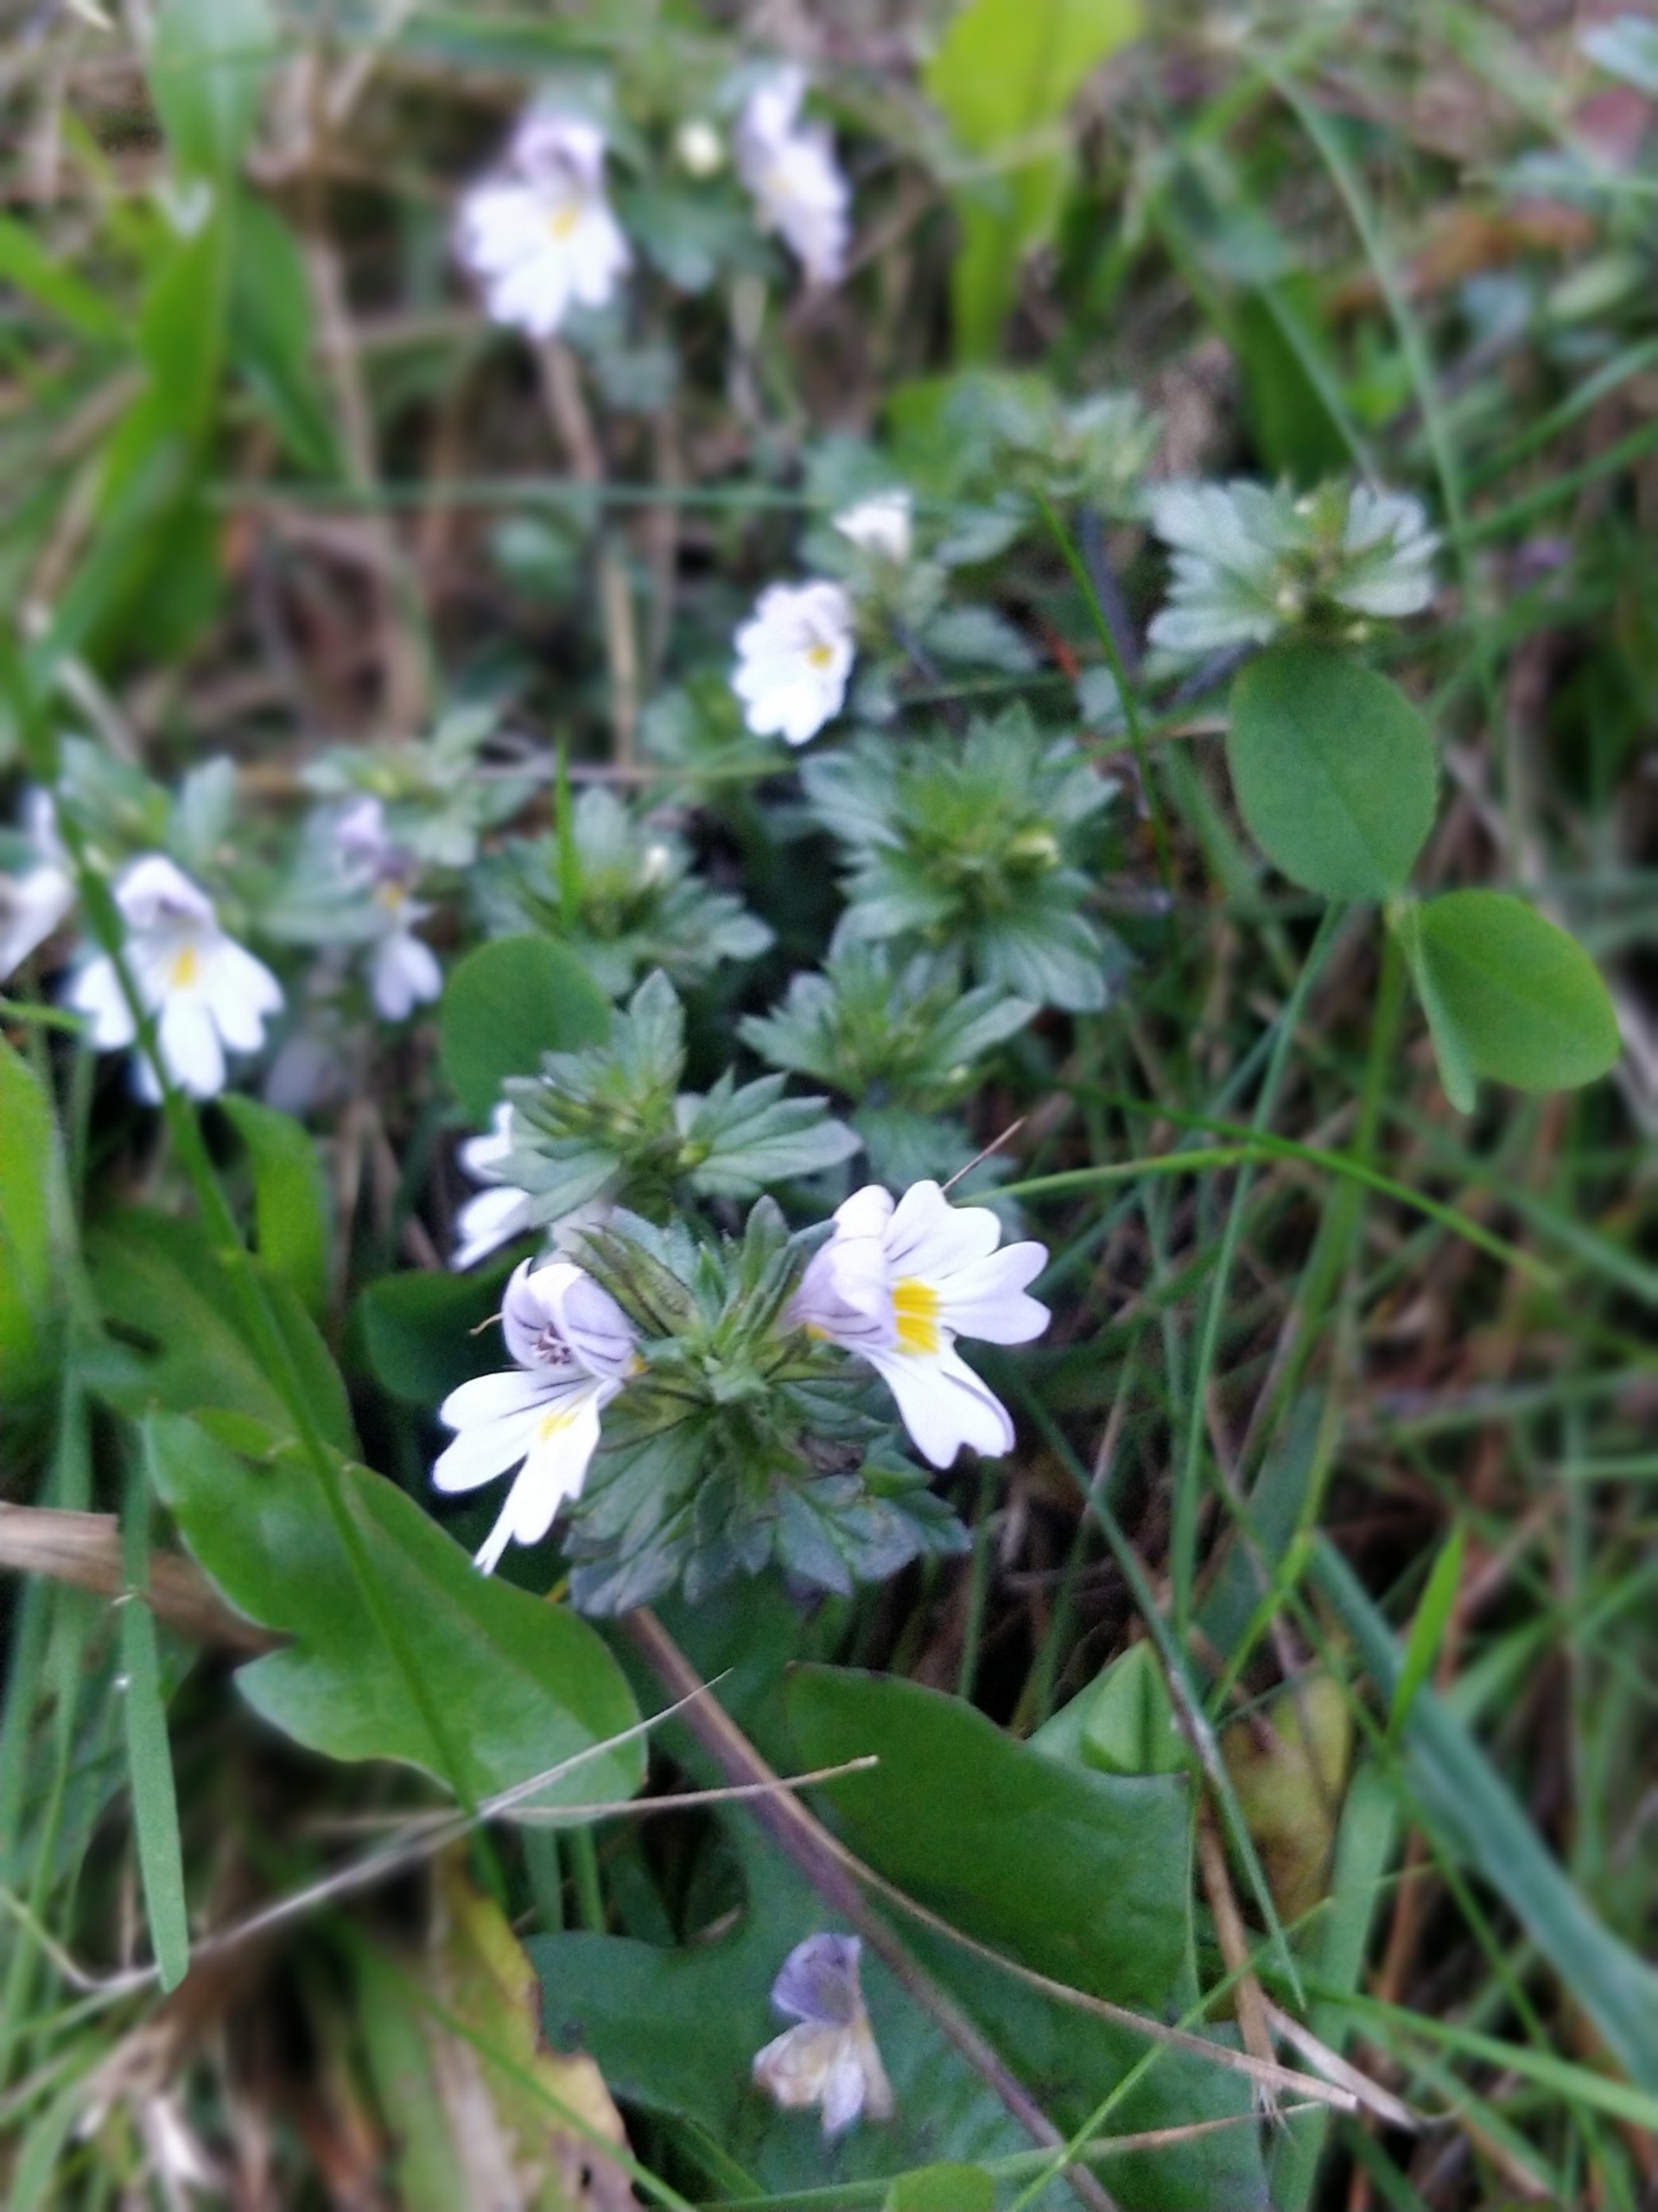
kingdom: Plantae
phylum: Tracheophyta
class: Magnoliopsida
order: Lamiales
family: Orobanchaceae
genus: Euphrasia
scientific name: Euphrasia nemorosa
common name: Kort øjentrøst
